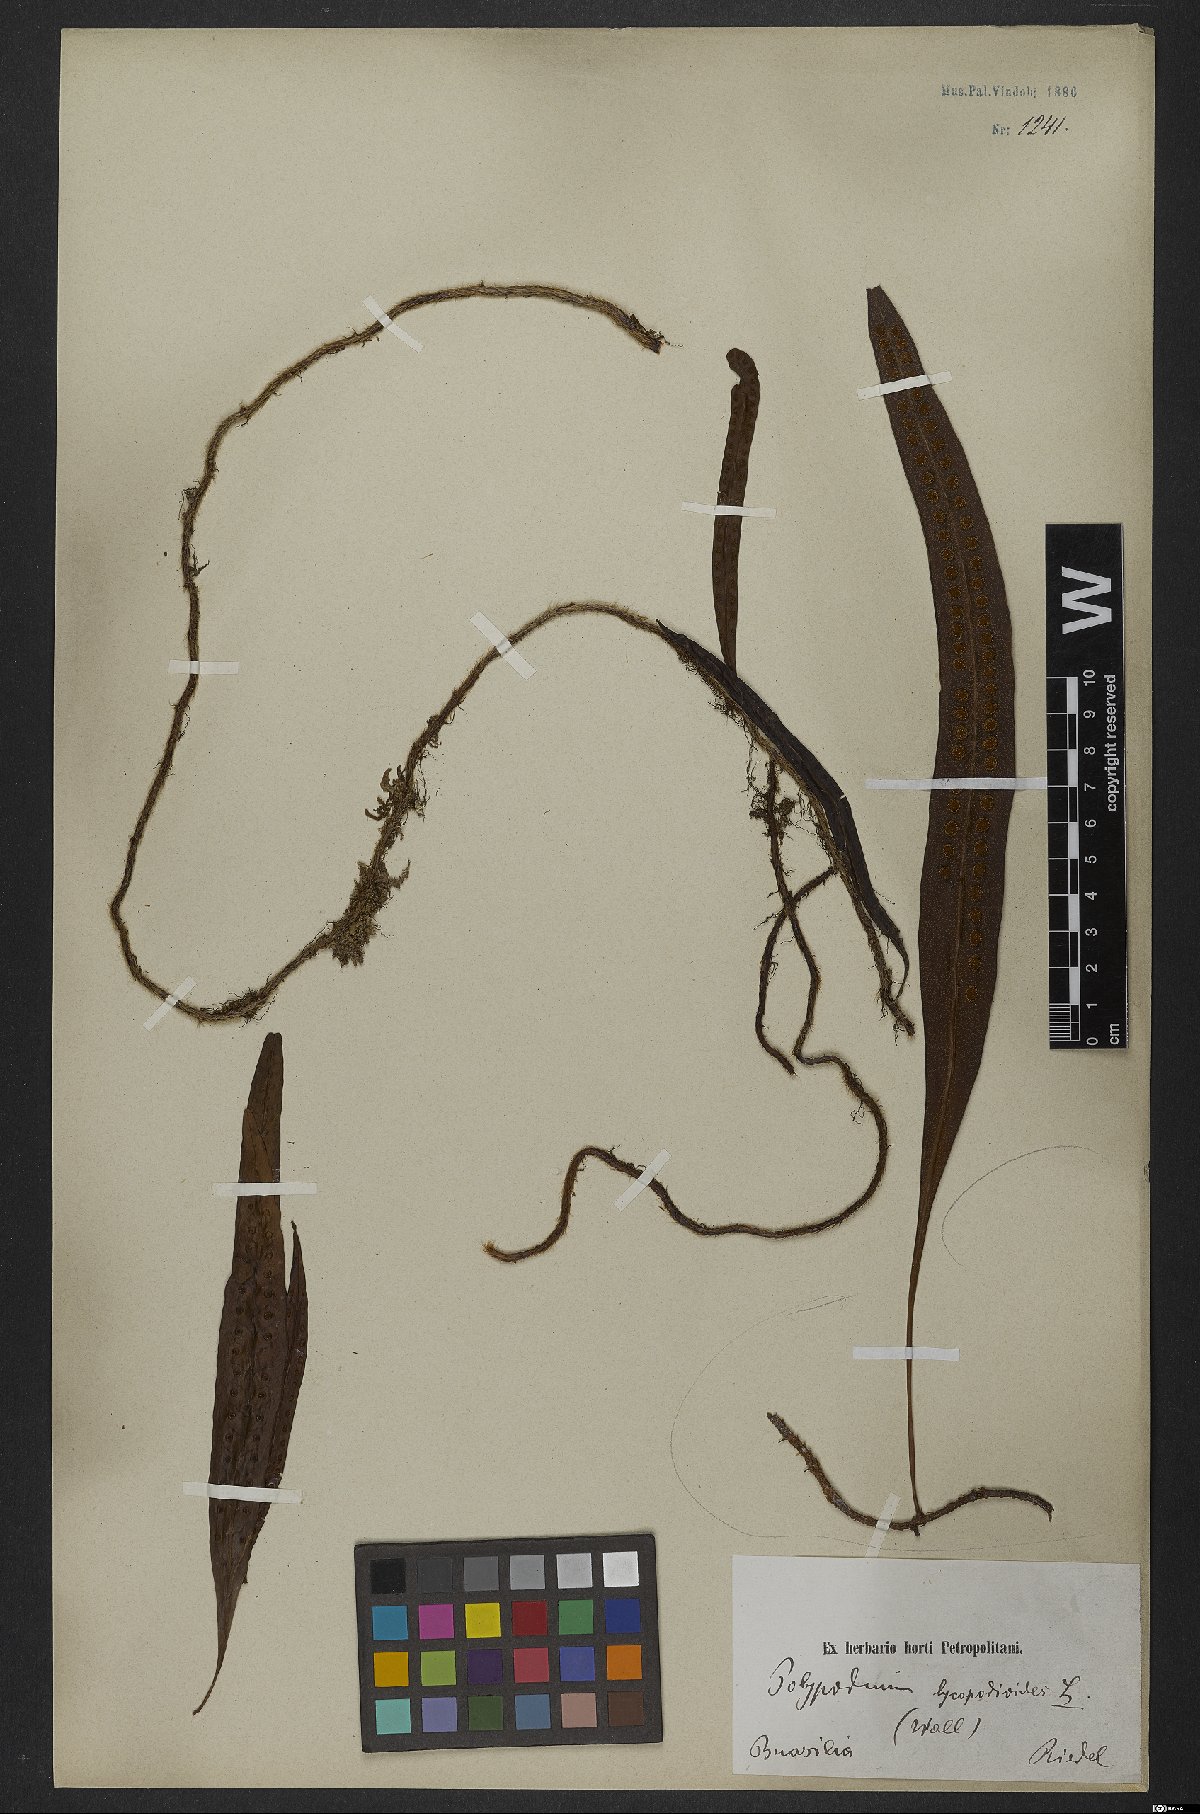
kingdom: Plantae
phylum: Tracheophyta
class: Polypodiopsida
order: Polypodiales
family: Polypodiaceae
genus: Microgramma
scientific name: Microgramma lycopodioides
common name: Bastard catclaw
